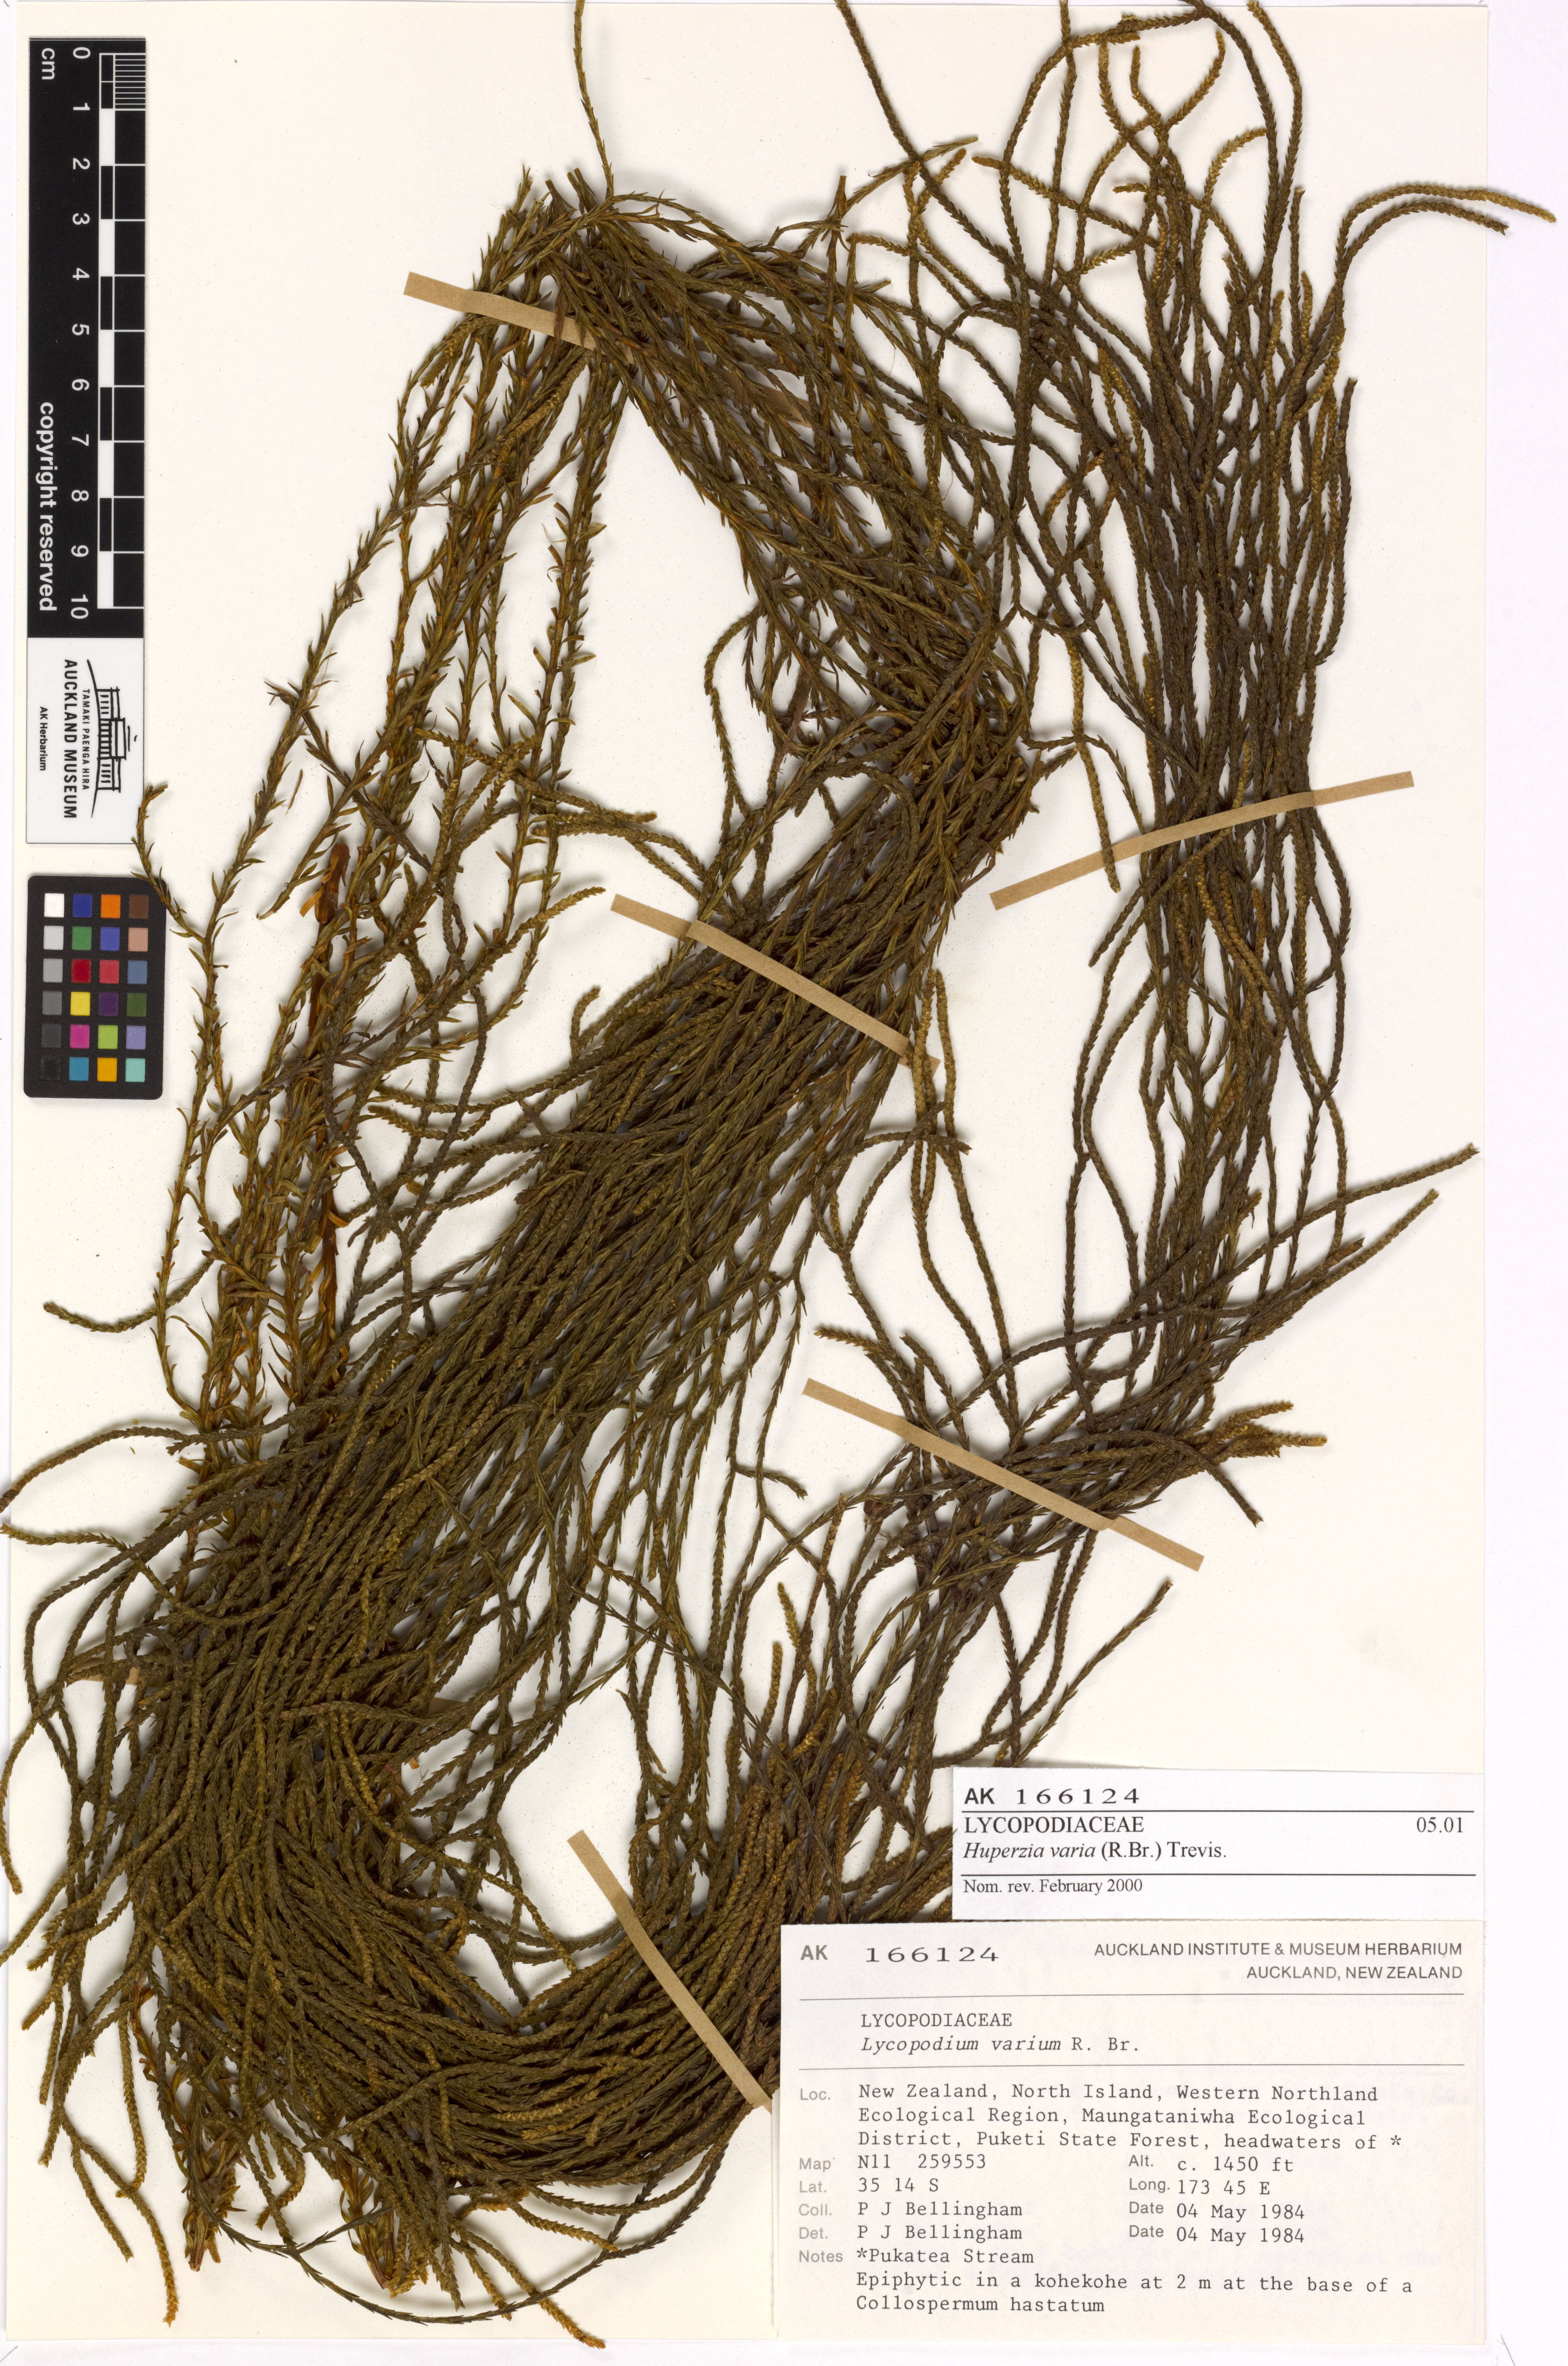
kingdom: Plantae
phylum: Tracheophyta
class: Lycopodiopsida
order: Lycopodiales
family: Lycopodiaceae
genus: Phlegmariurus
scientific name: Phlegmariurus billardierei
